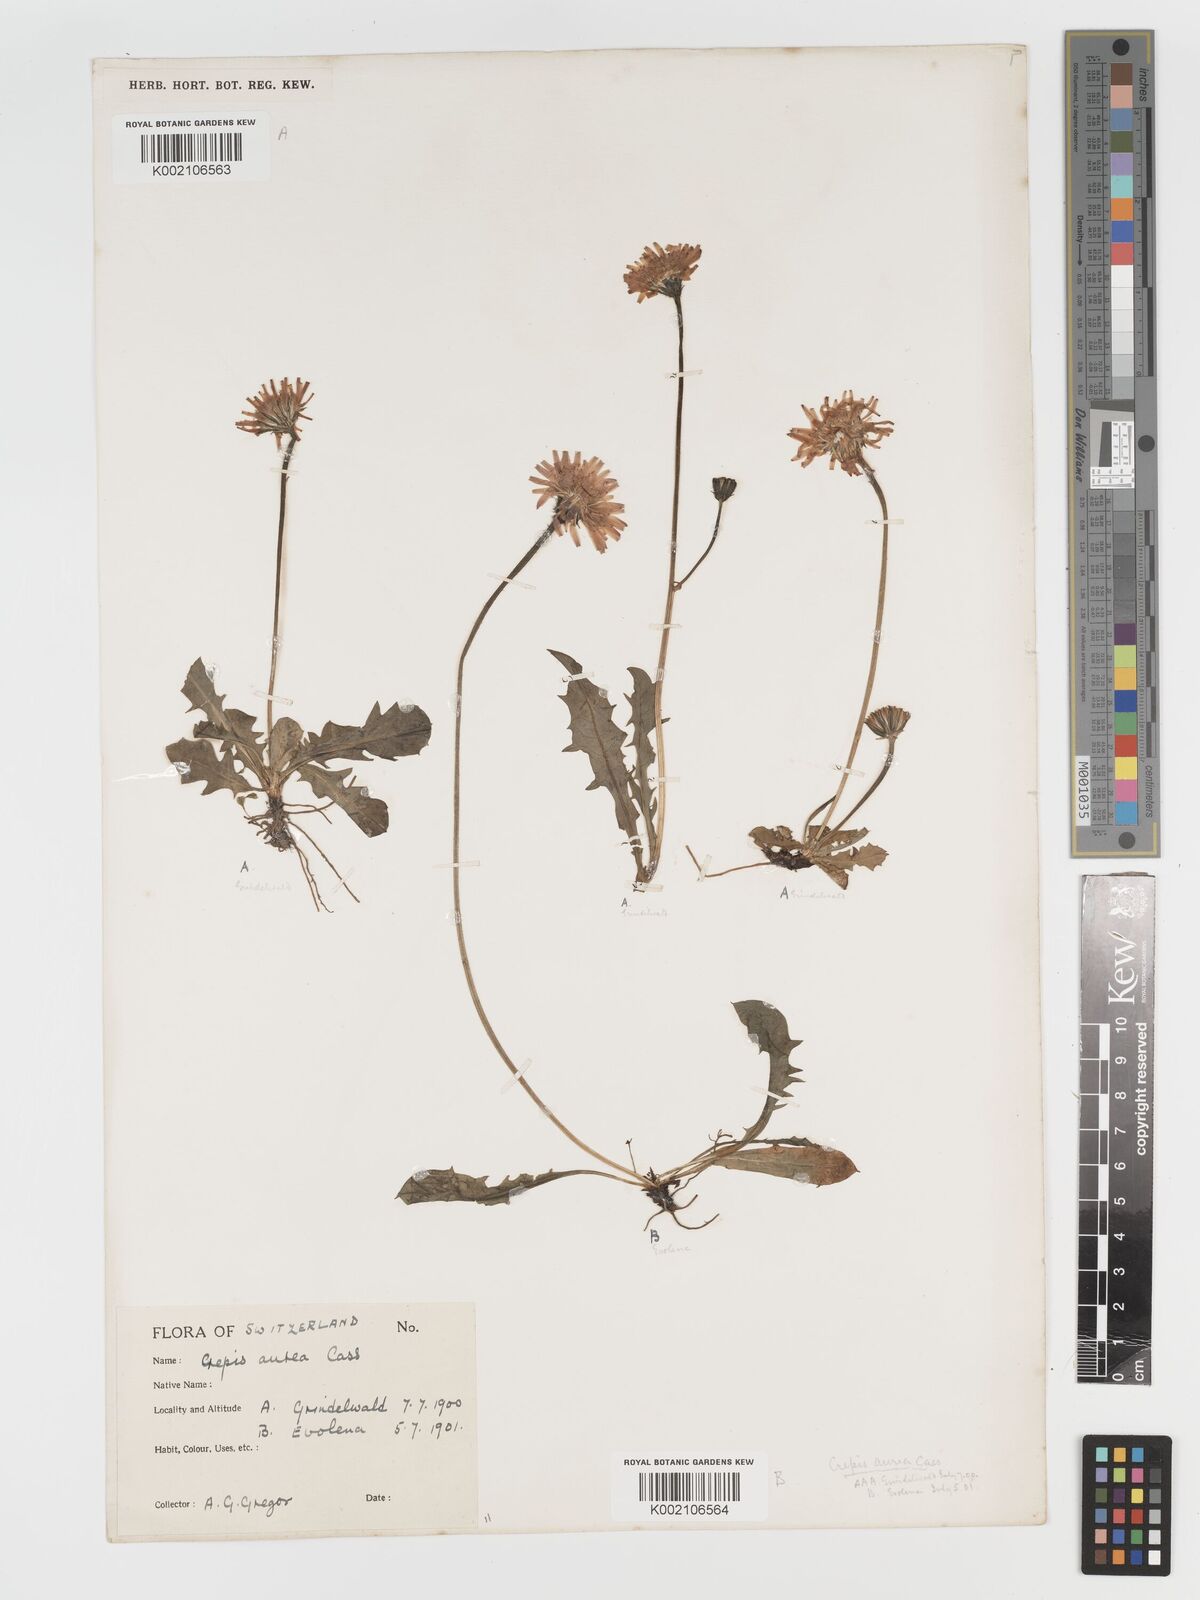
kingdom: Plantae
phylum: Tracheophyta
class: Magnoliopsida
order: Asterales
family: Asteraceae
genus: Crepis
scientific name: Crepis aurea
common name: Golden hawk's-beard
